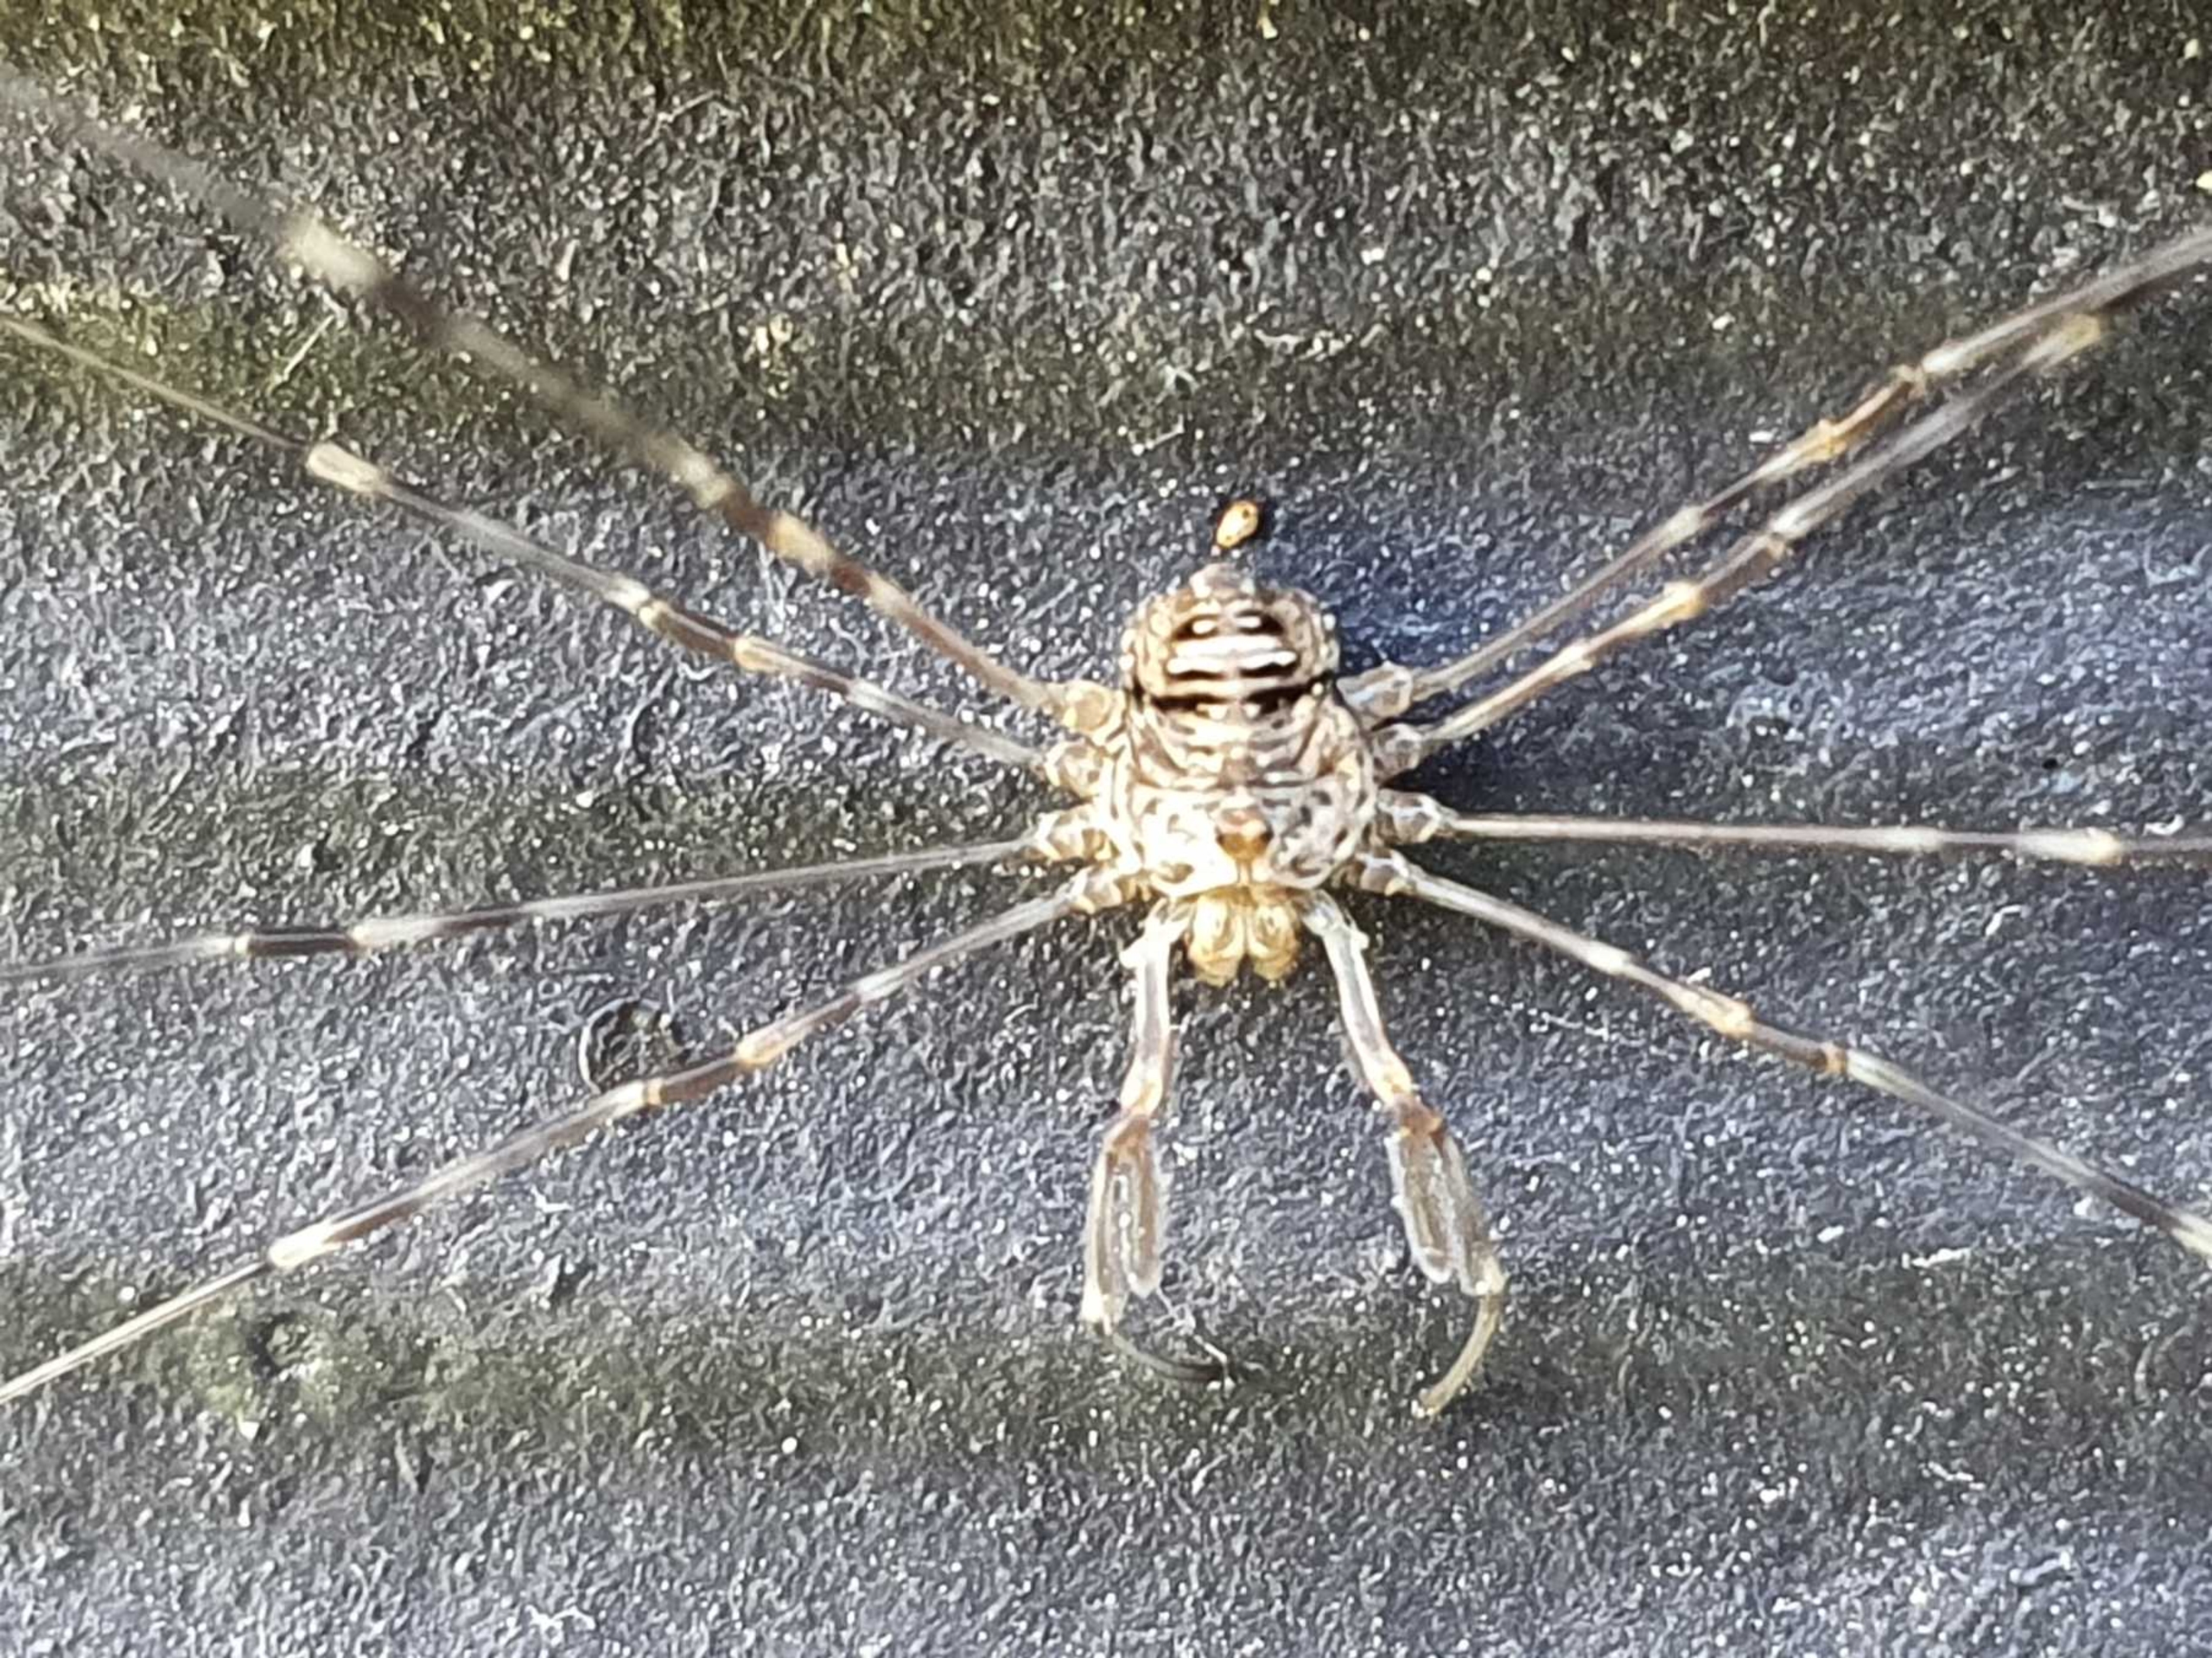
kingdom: Animalia
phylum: Arthropoda
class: Arachnida
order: Opiliones
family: Phalangiidae
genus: Dicranopalpus
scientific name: Dicranopalpus ramosus
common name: Gaffelmejer
